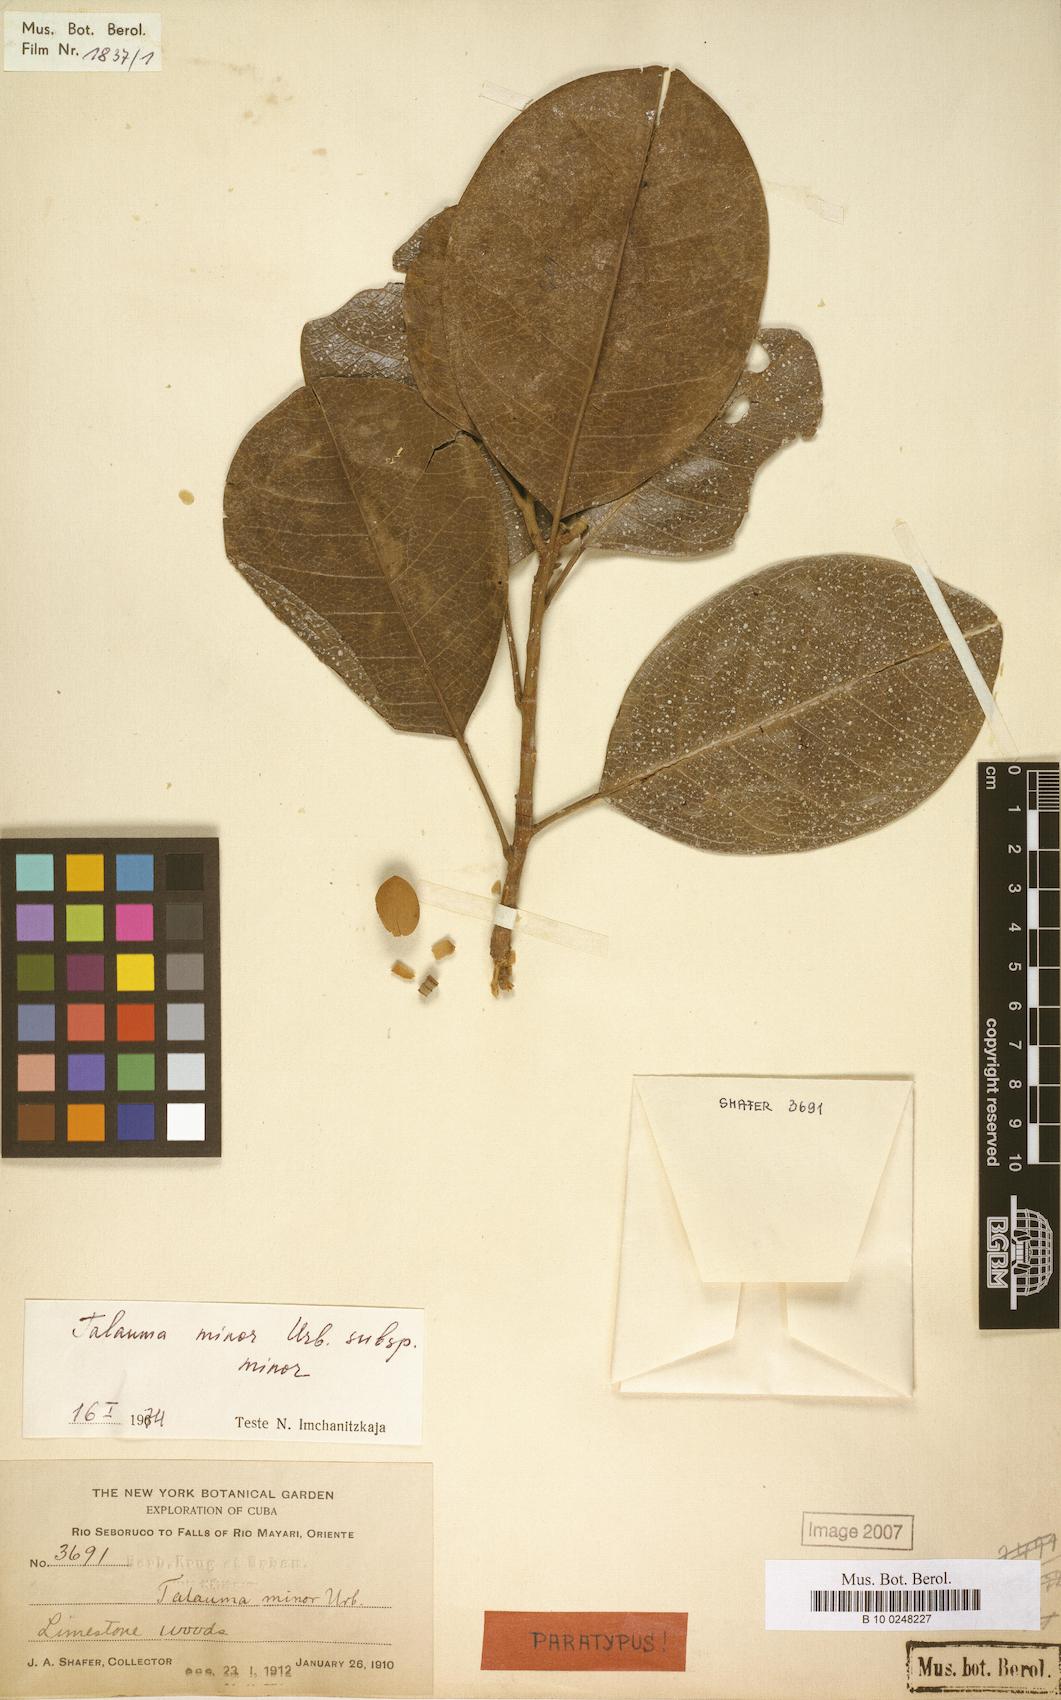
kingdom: Plantae
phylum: Tracheophyta
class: Magnoliopsida
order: Magnoliales
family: Magnoliaceae
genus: Magnolia
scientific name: Magnolia minor
